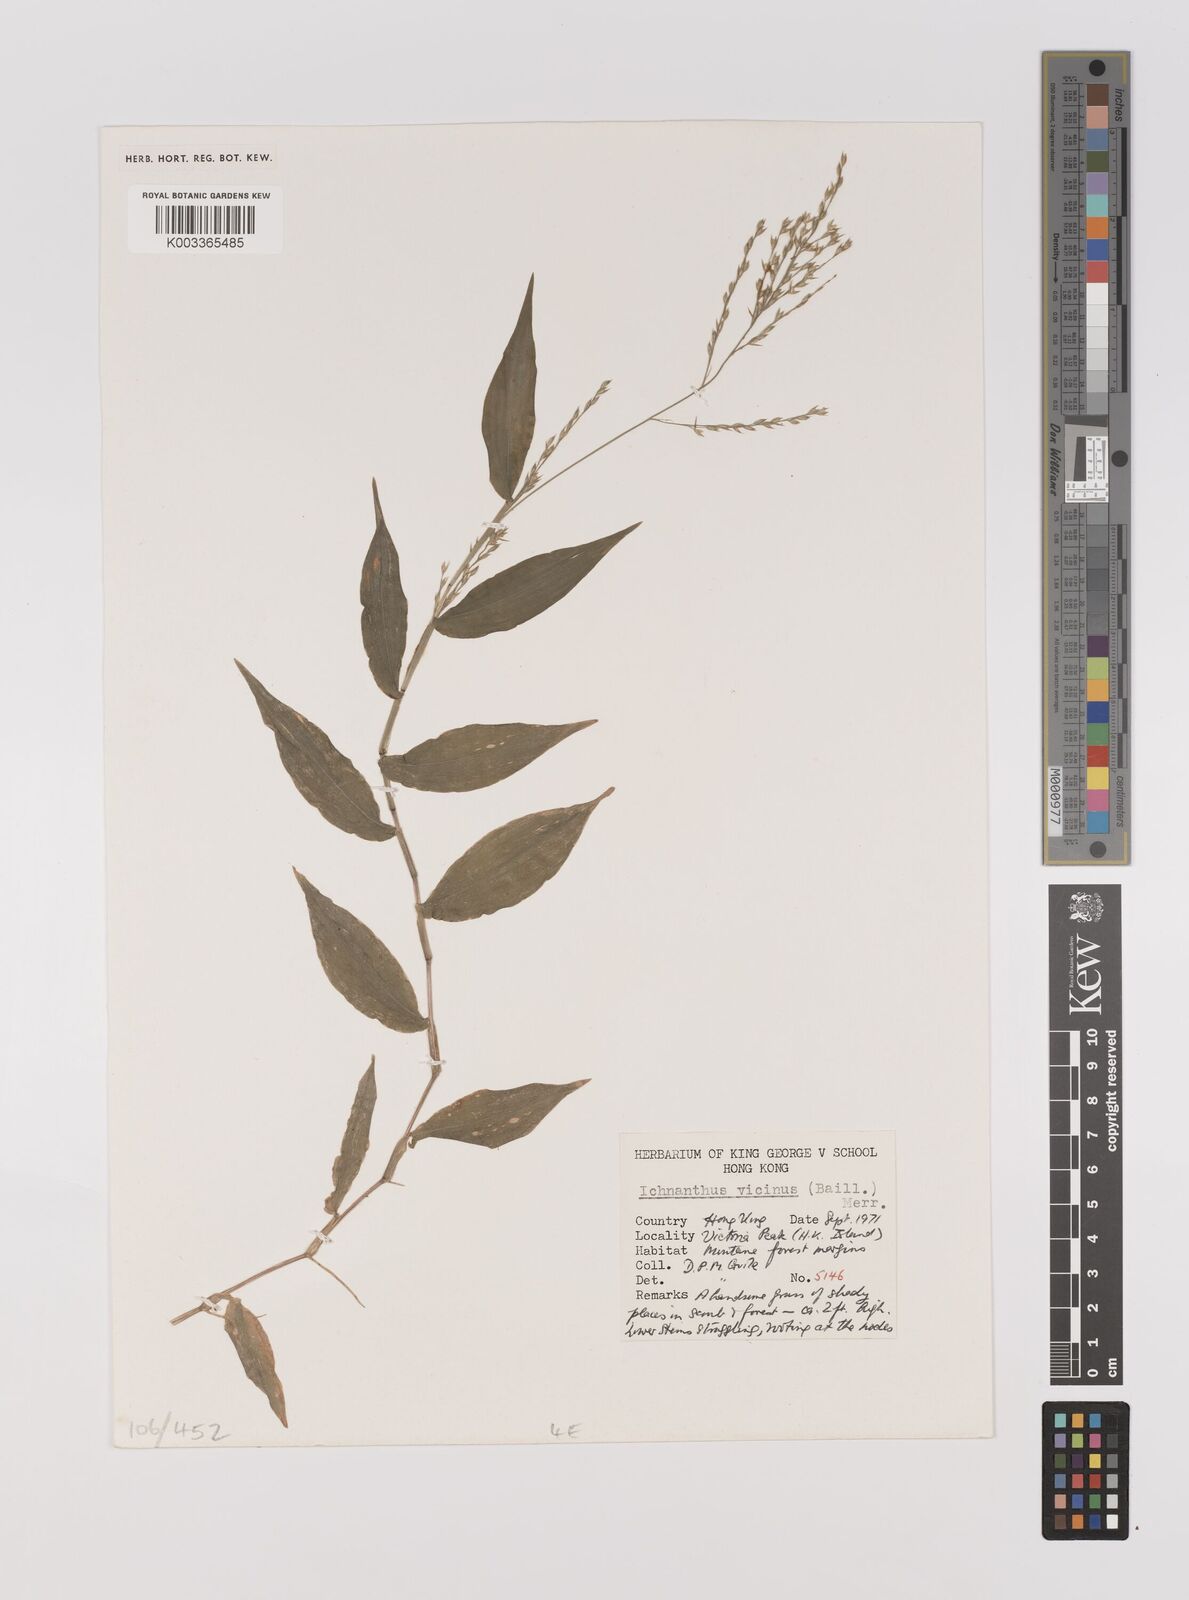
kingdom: Plantae
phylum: Tracheophyta
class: Liliopsida
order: Poales
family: Poaceae
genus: Ichnanthus
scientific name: Ichnanthus pallens
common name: Water grass
